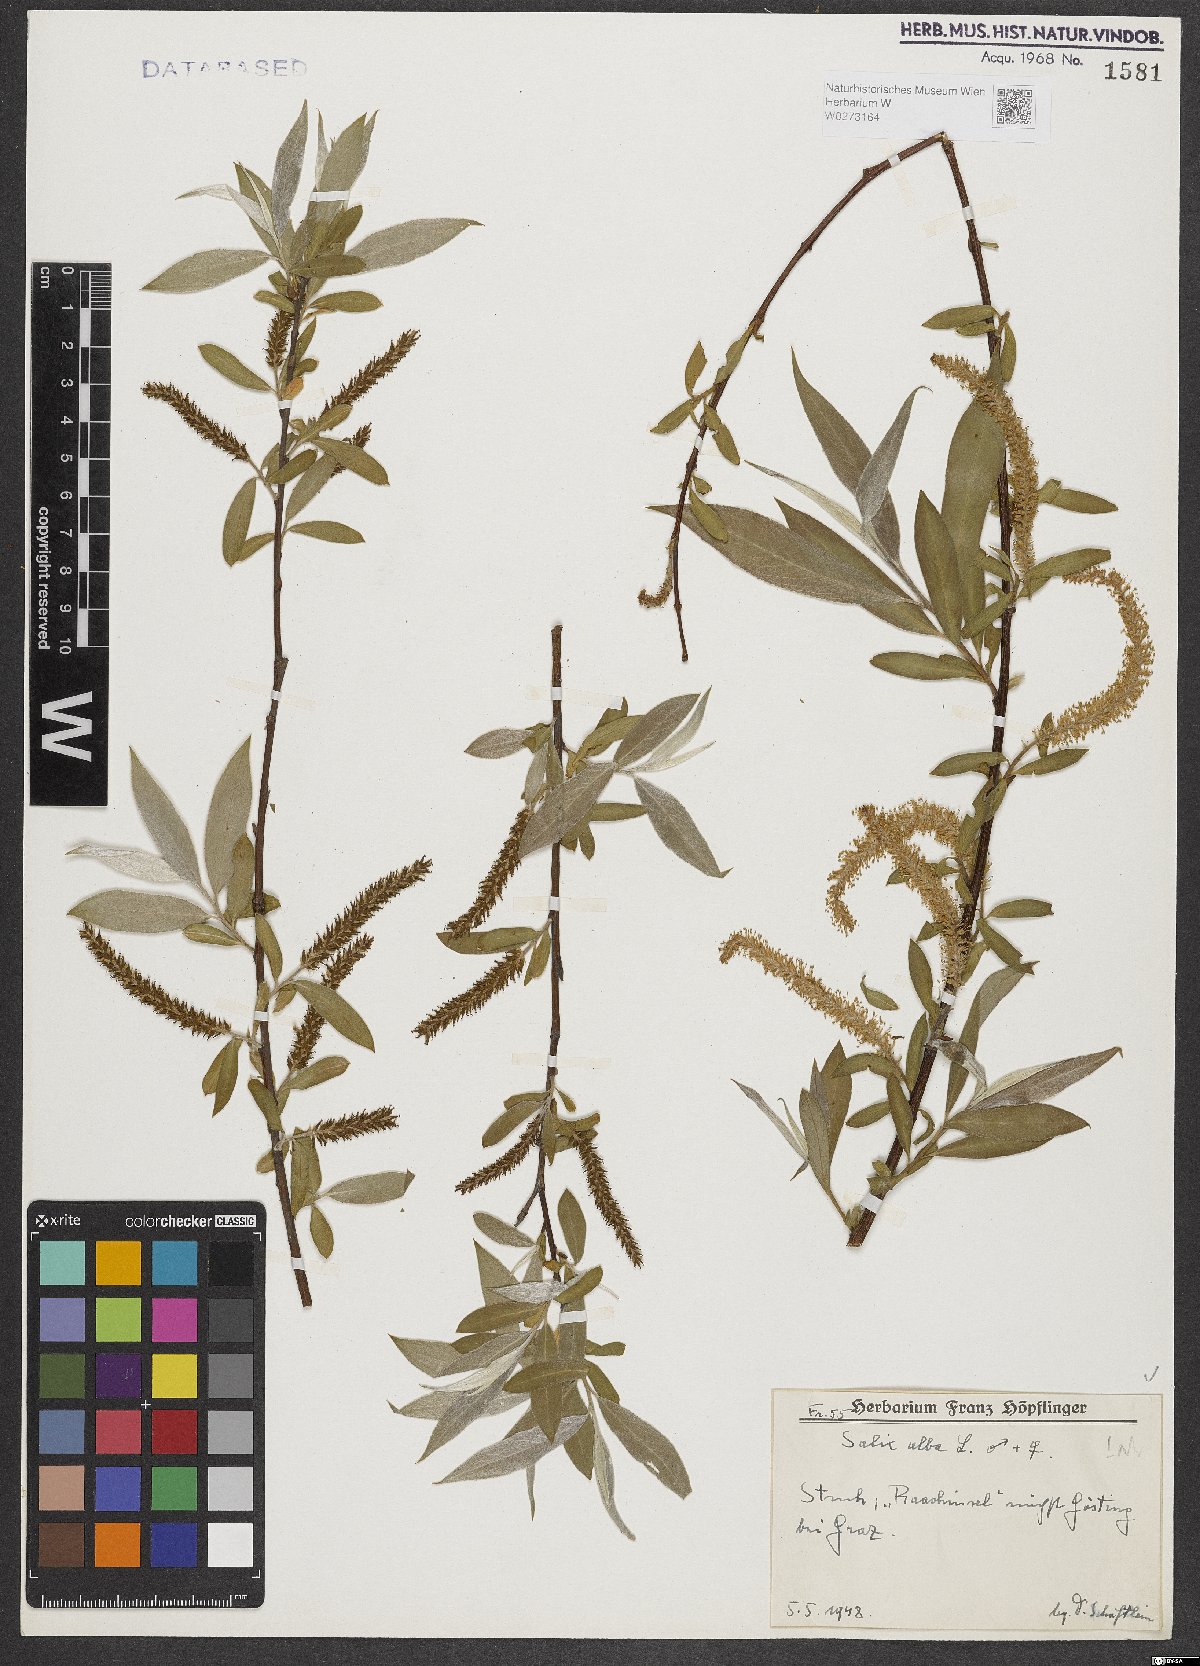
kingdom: Plantae
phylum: Tracheophyta
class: Magnoliopsida
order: Malpighiales
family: Salicaceae
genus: Salix
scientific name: Salix alba
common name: White willow
